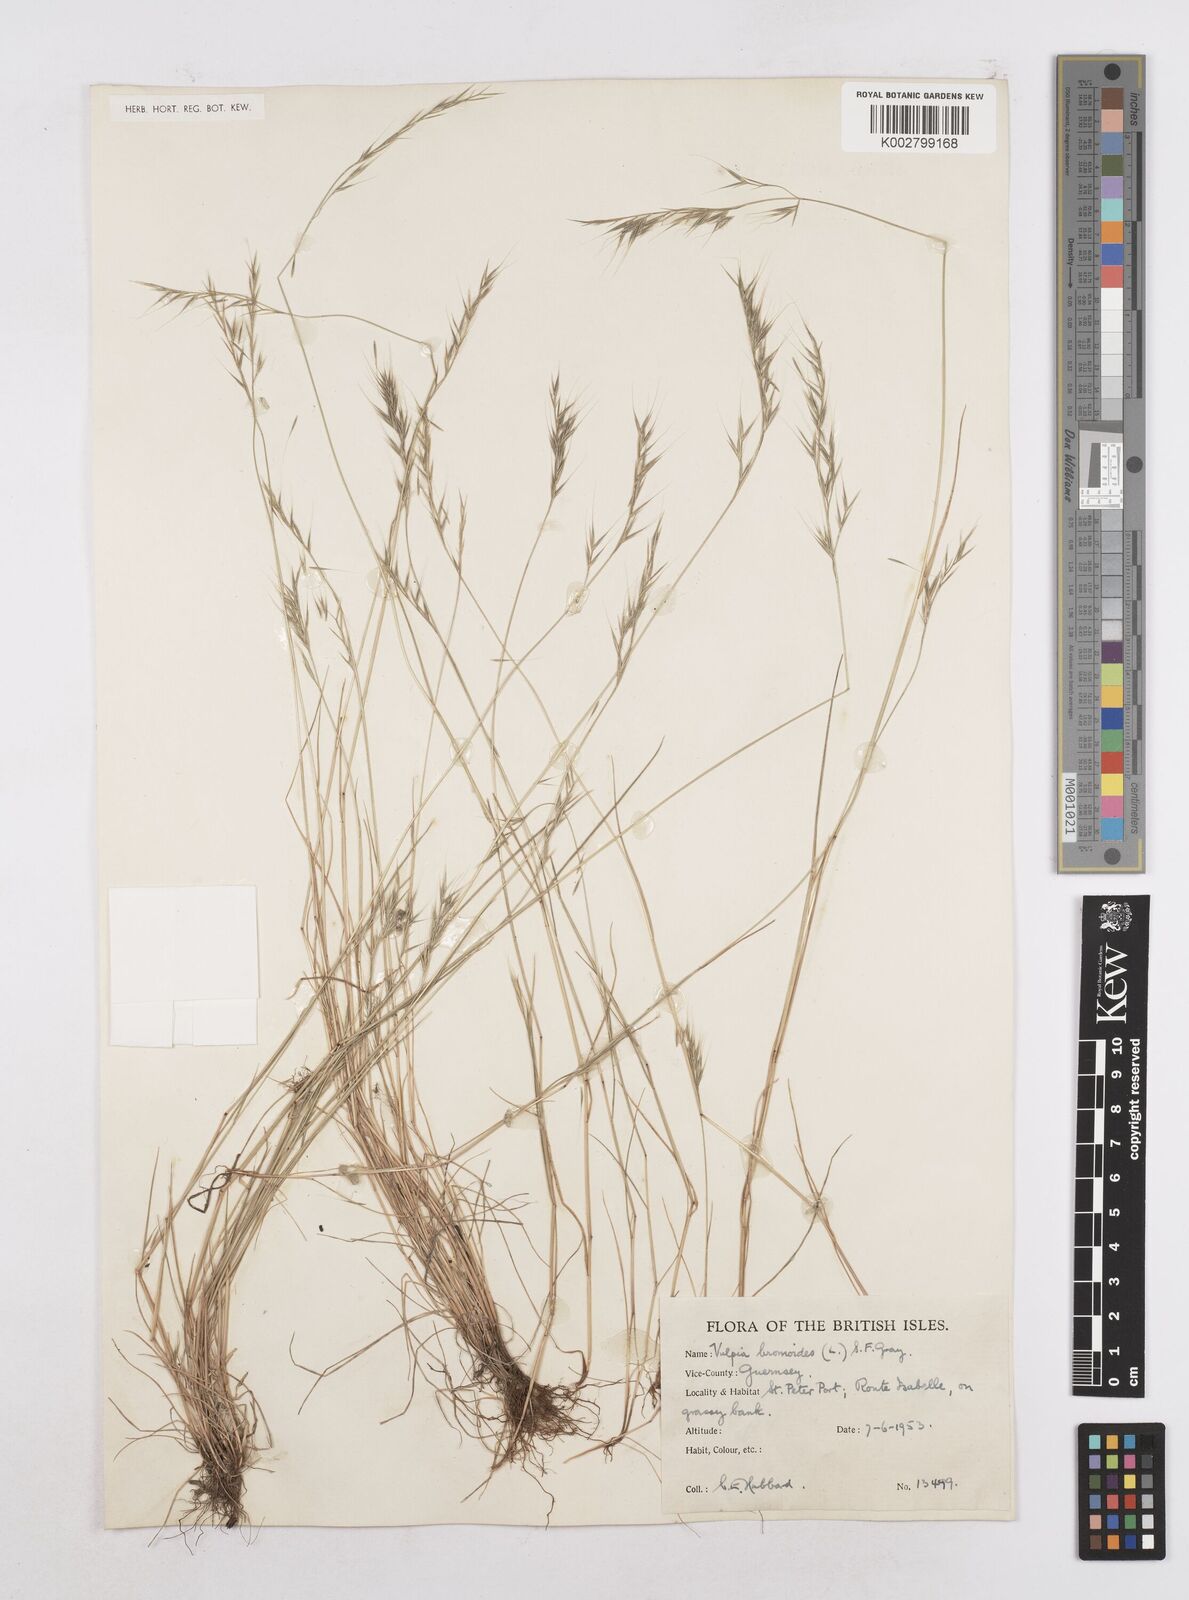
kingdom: Plantae
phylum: Tracheophyta
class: Liliopsida
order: Poales
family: Poaceae
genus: Festuca
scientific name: Festuca bromoides
